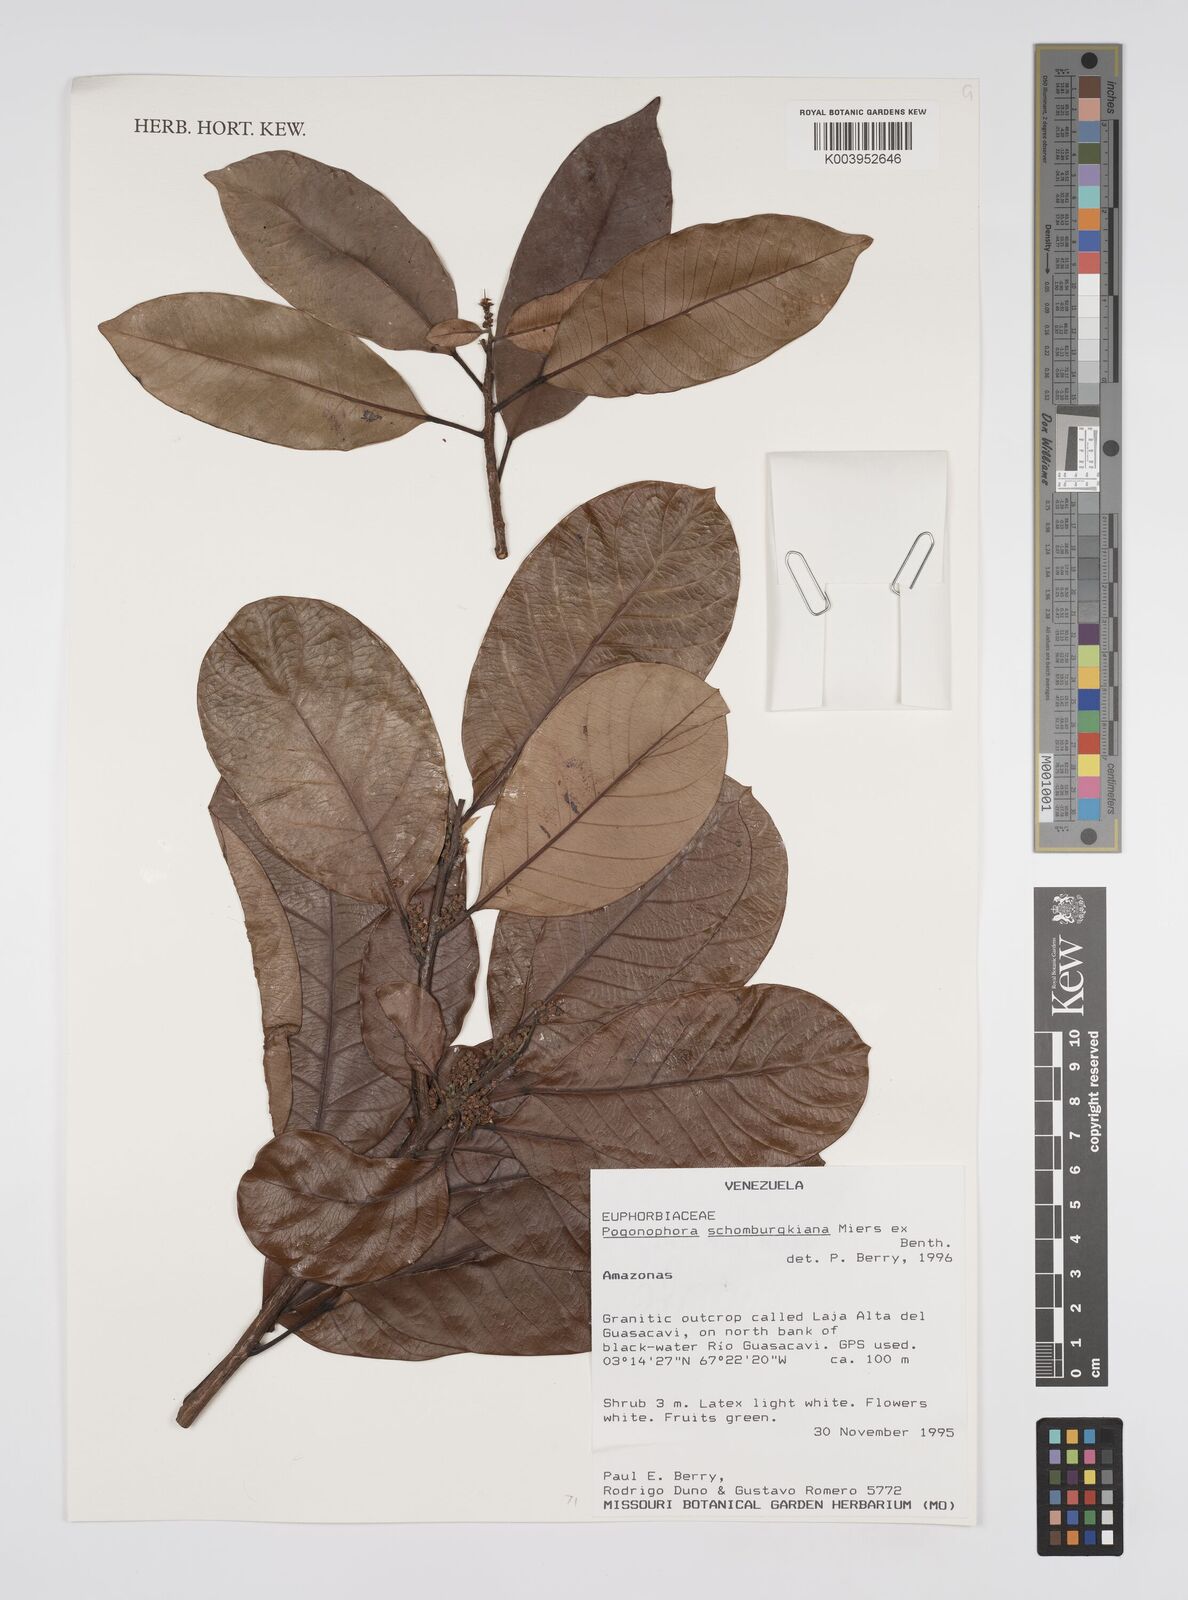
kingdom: Plantae
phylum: Tracheophyta
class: Magnoliopsida
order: Malpighiales
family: Peraceae
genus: Pogonophora
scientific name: Pogonophora schomburgkiana
